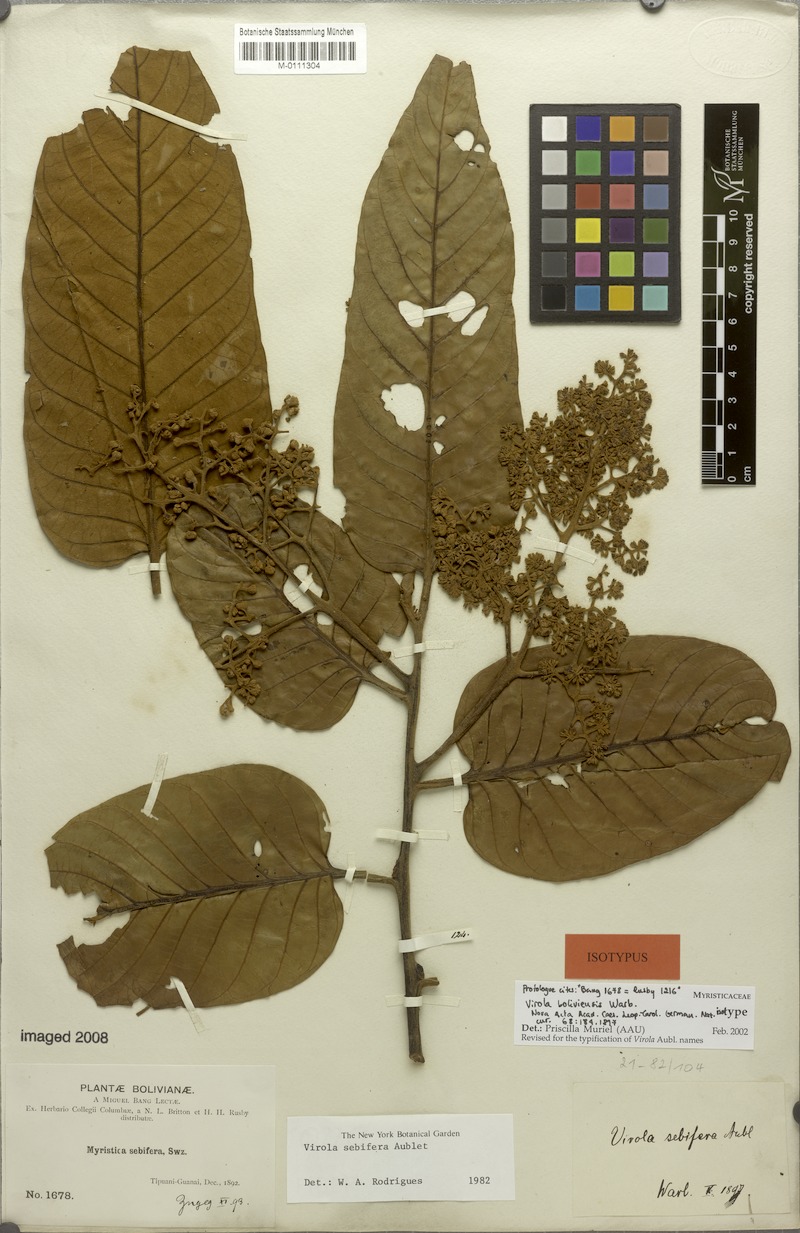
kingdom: Plantae
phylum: Tracheophyta
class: Magnoliopsida
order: Magnoliales
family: Myristicaceae
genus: Virola
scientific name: Virola sebifera
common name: Red ucuuba
